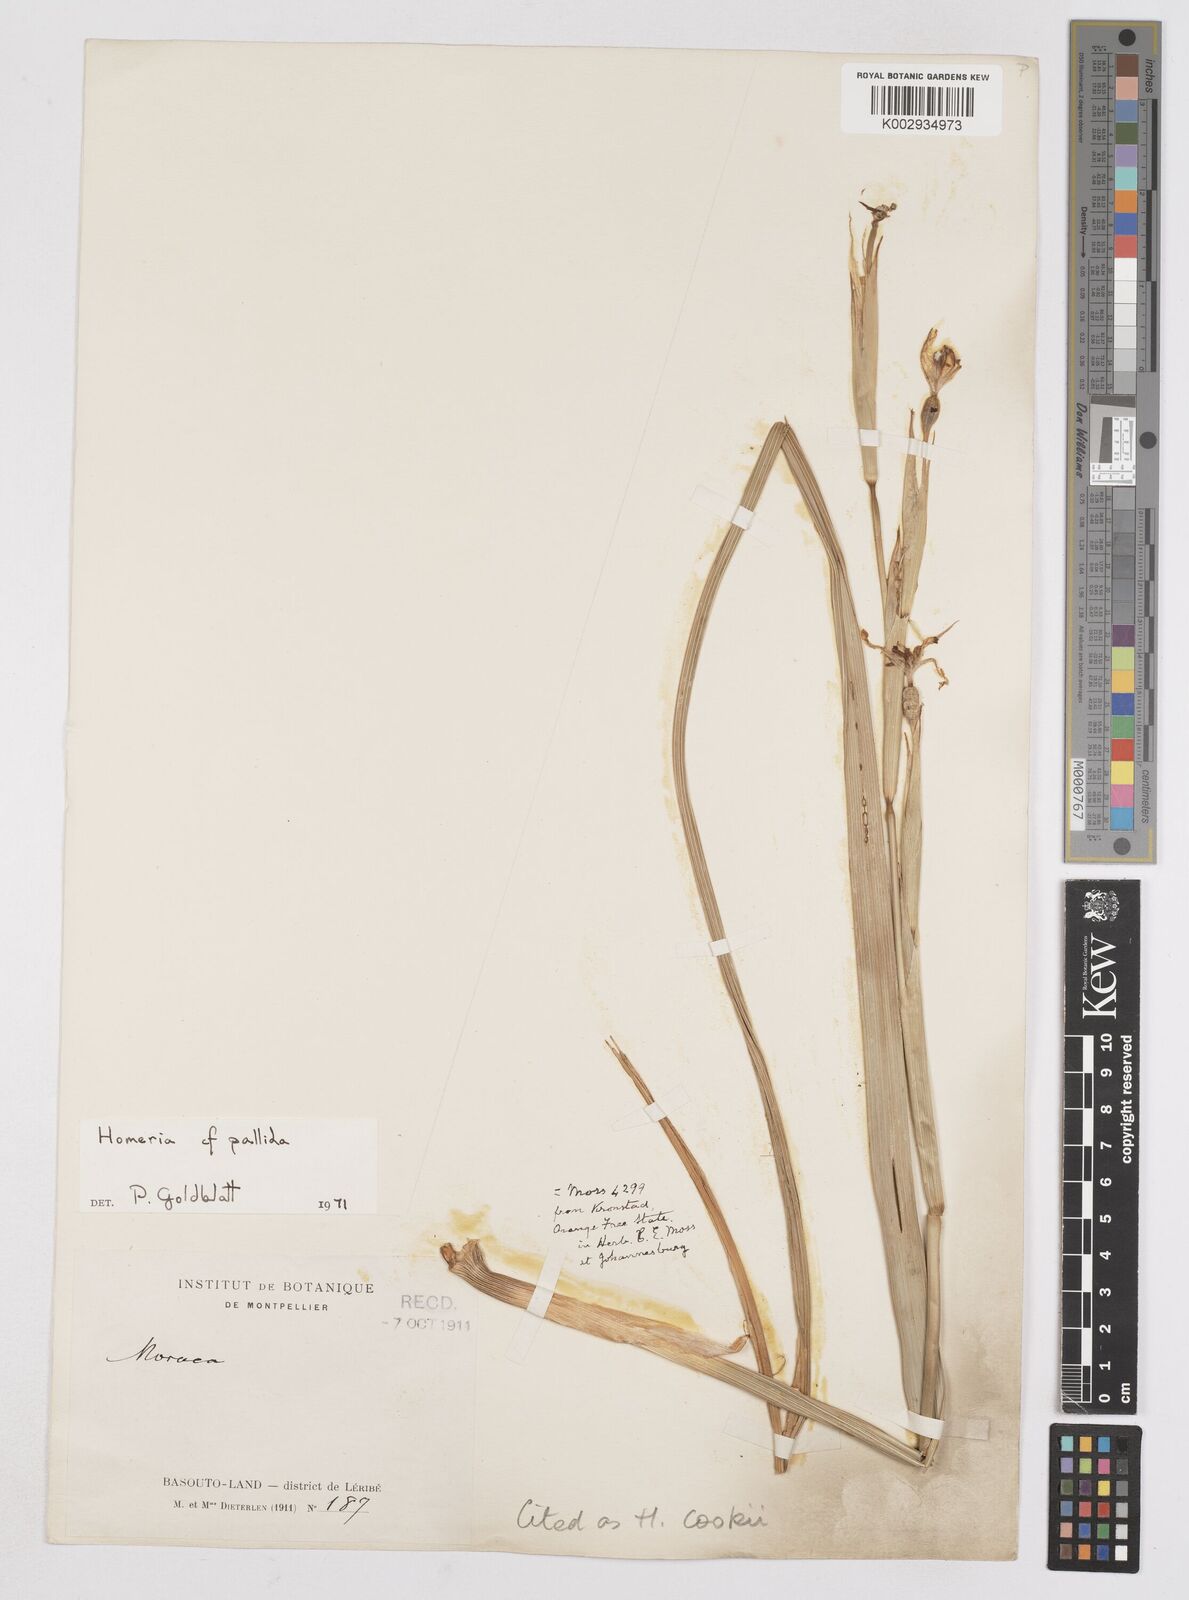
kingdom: Plantae
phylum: Tracheophyta
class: Liliopsida
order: Asparagales
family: Iridaceae
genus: Moraea
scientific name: Moraea cookii
